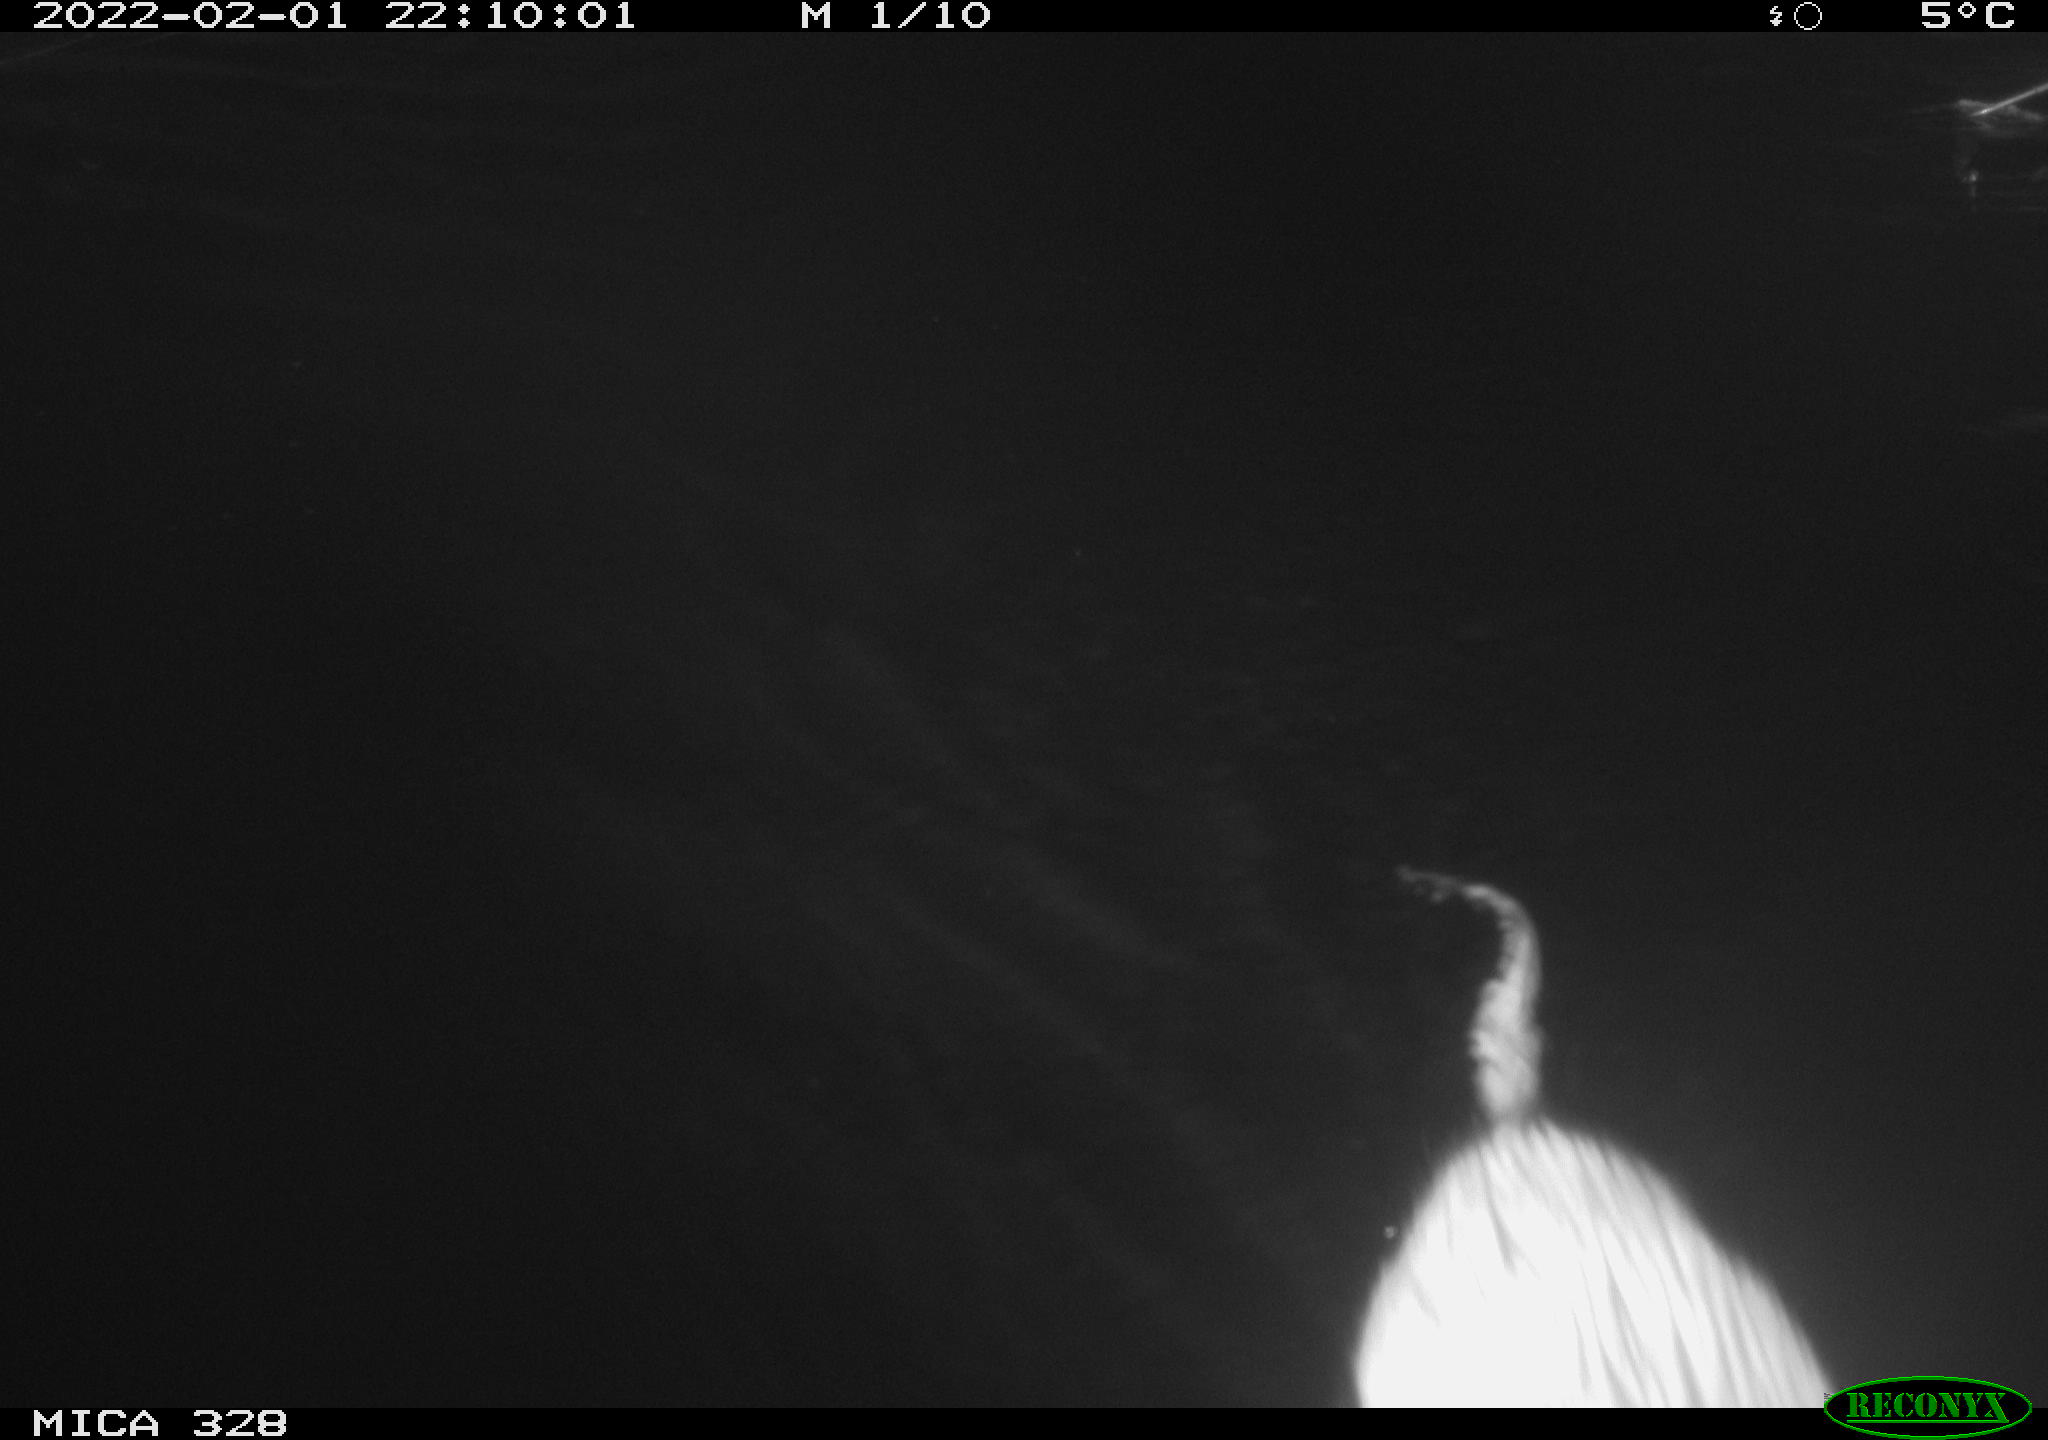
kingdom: Animalia
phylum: Chordata
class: Mammalia
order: Rodentia
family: Cricetidae
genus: Ondatra
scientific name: Ondatra zibethicus
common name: Muskrat
